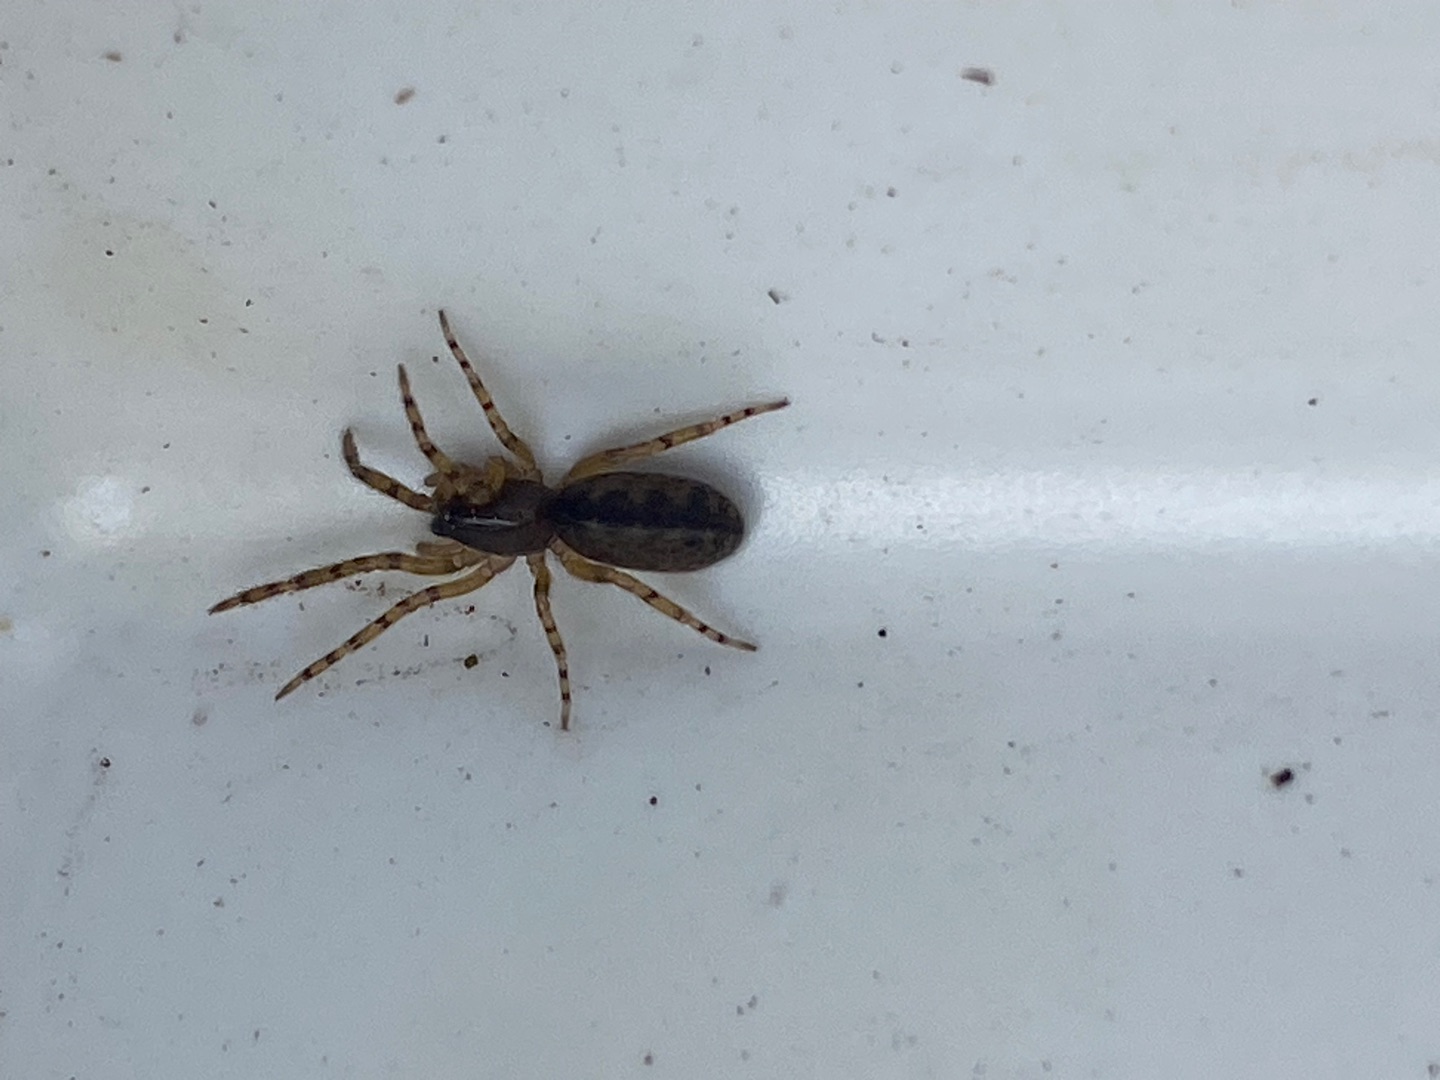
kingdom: Animalia
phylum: Arthropoda
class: Arachnida
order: Araneae
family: Segestriidae
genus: Segestria
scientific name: Segestria senoculata
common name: Snubletrådsedderkop
